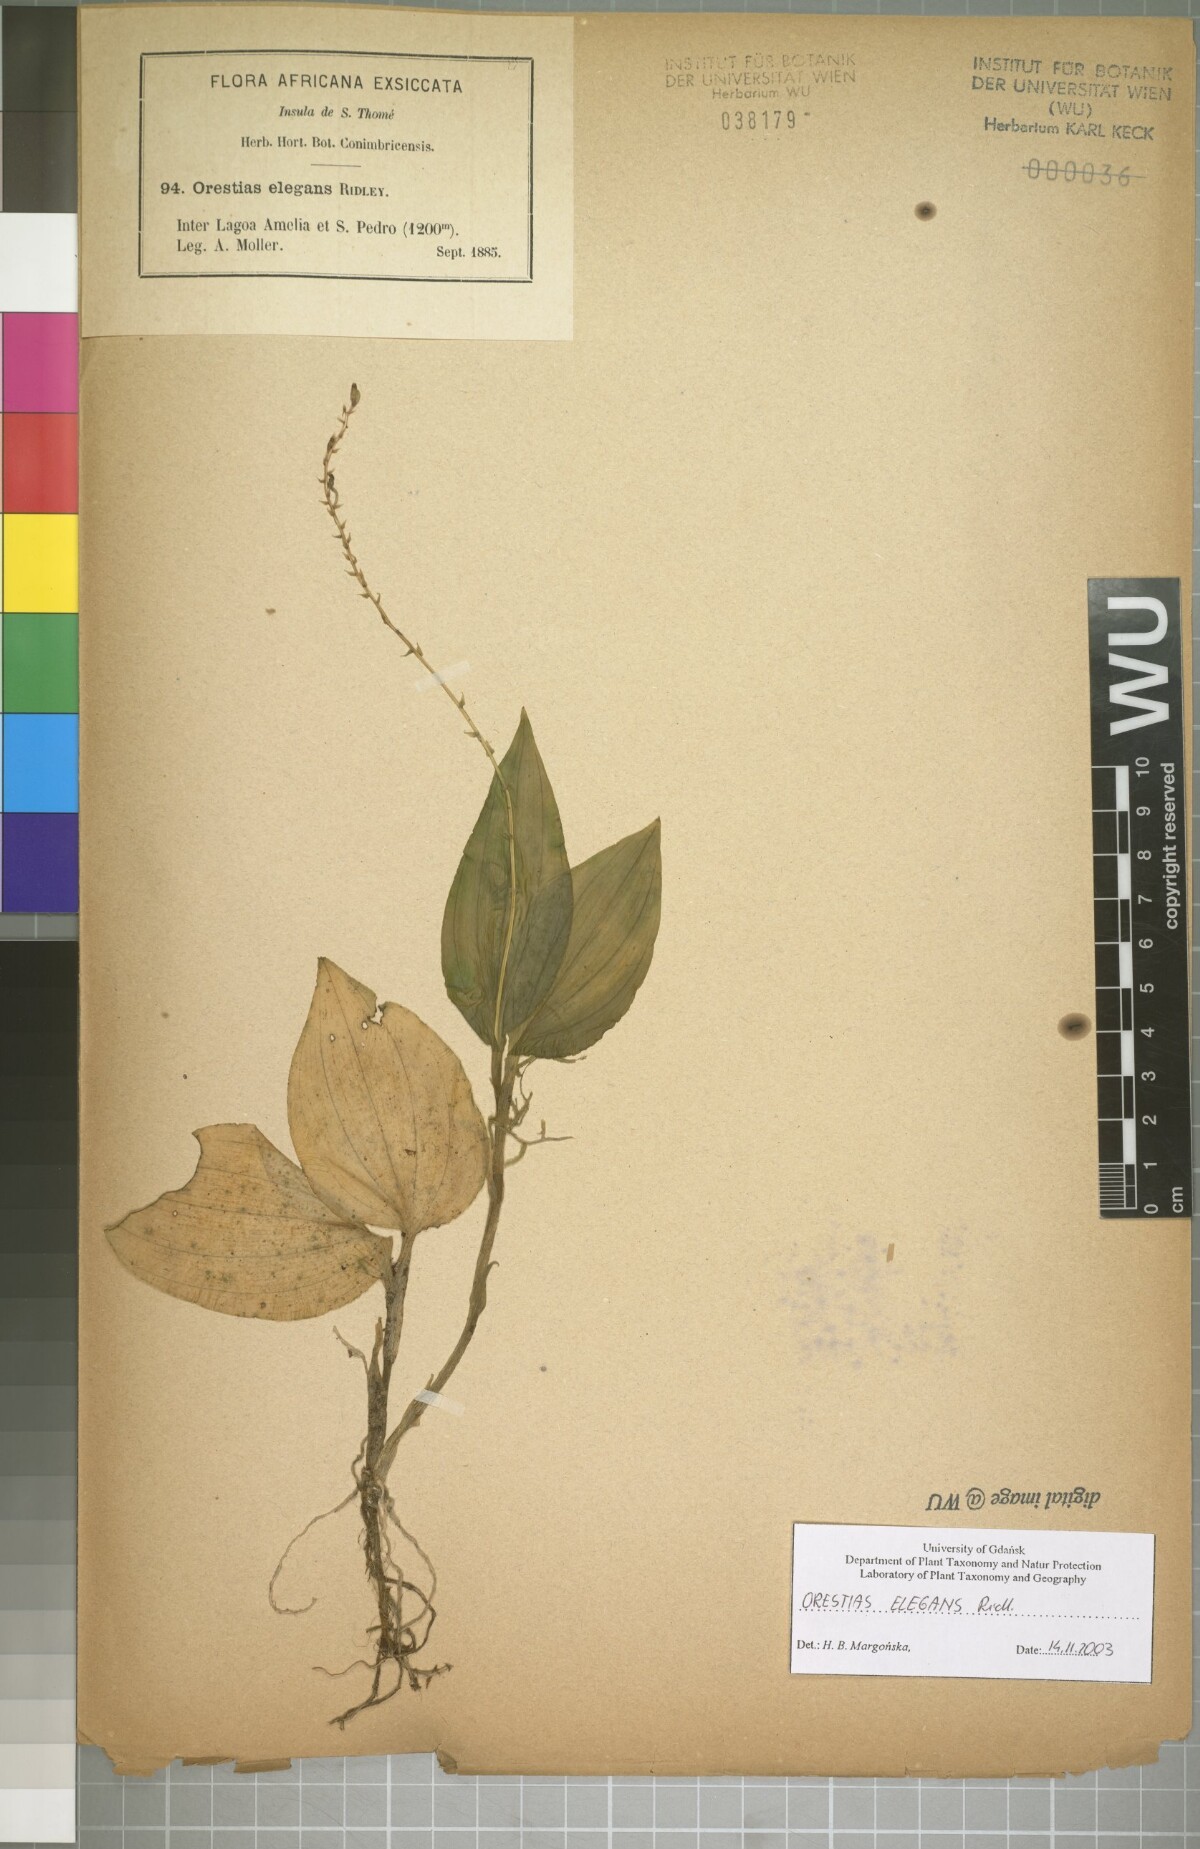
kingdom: Plantae
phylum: Tracheophyta
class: Liliopsida
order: Asparagales
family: Orchidaceae
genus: Orestias
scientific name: Orestias elegans
